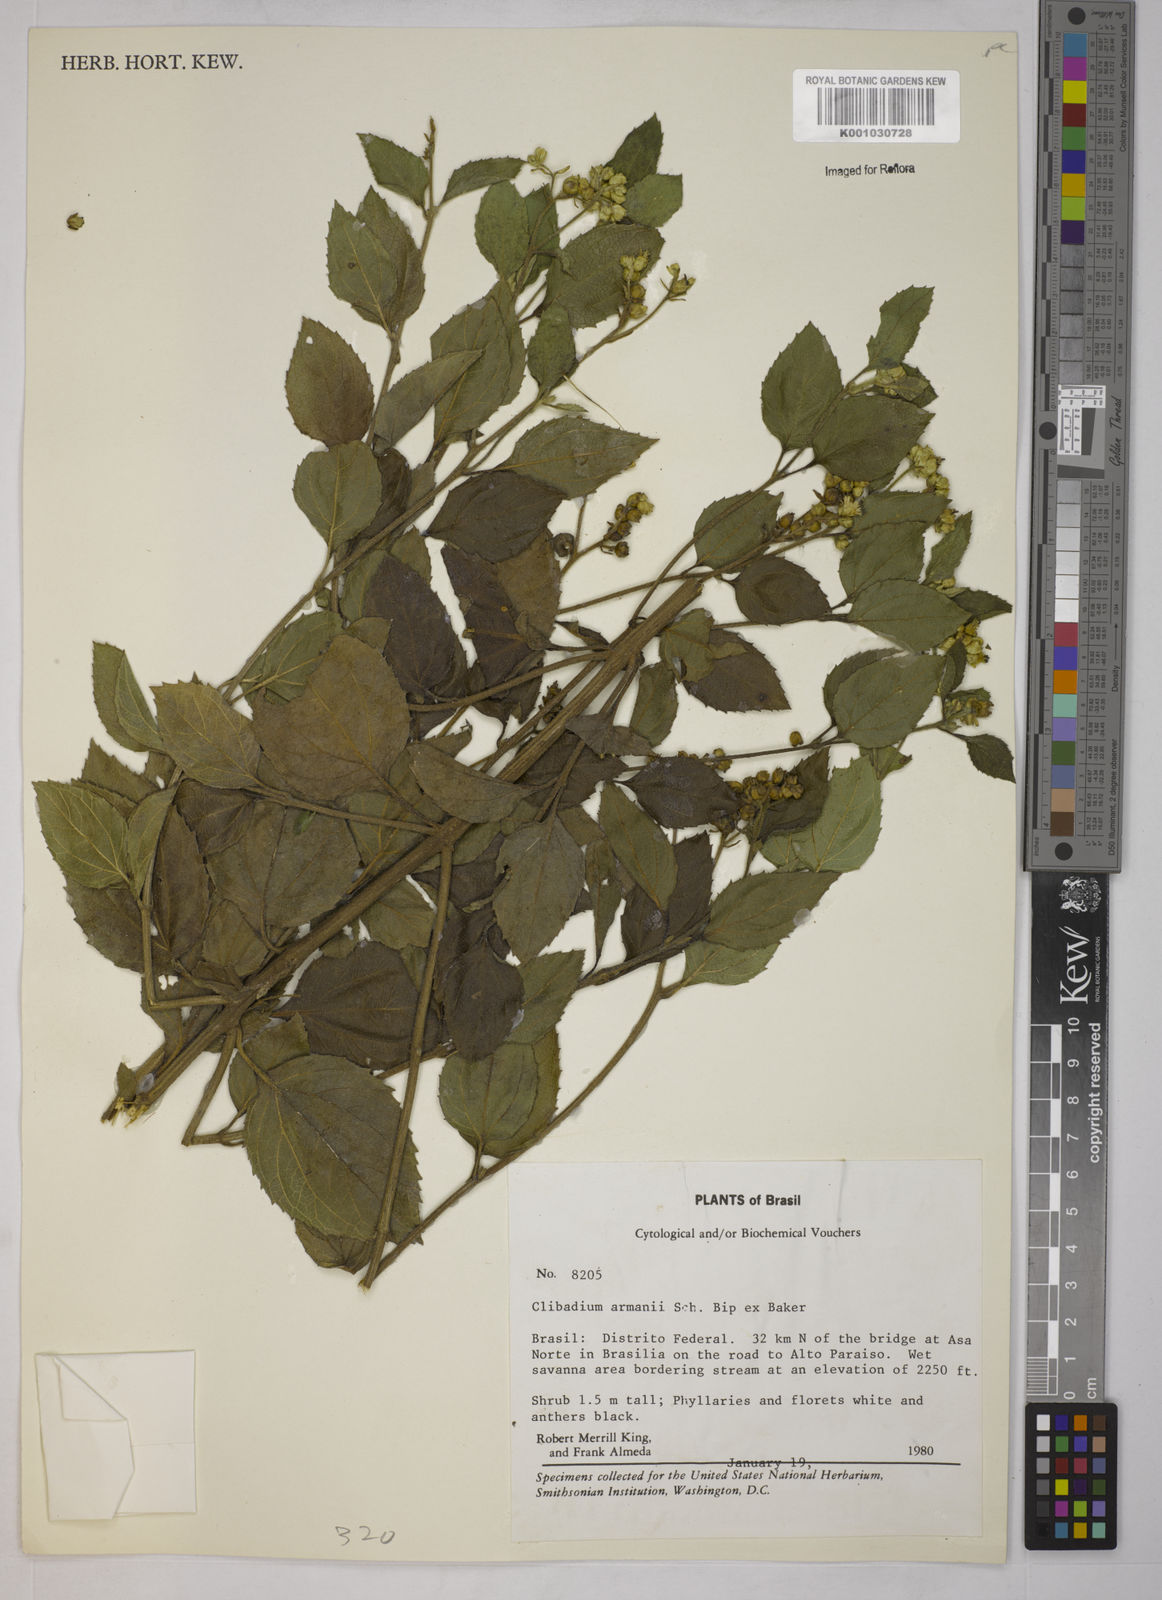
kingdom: Plantae
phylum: Tracheophyta
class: Magnoliopsida
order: Asterales
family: Asteraceae
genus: Clibadium
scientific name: Clibadium armanii
